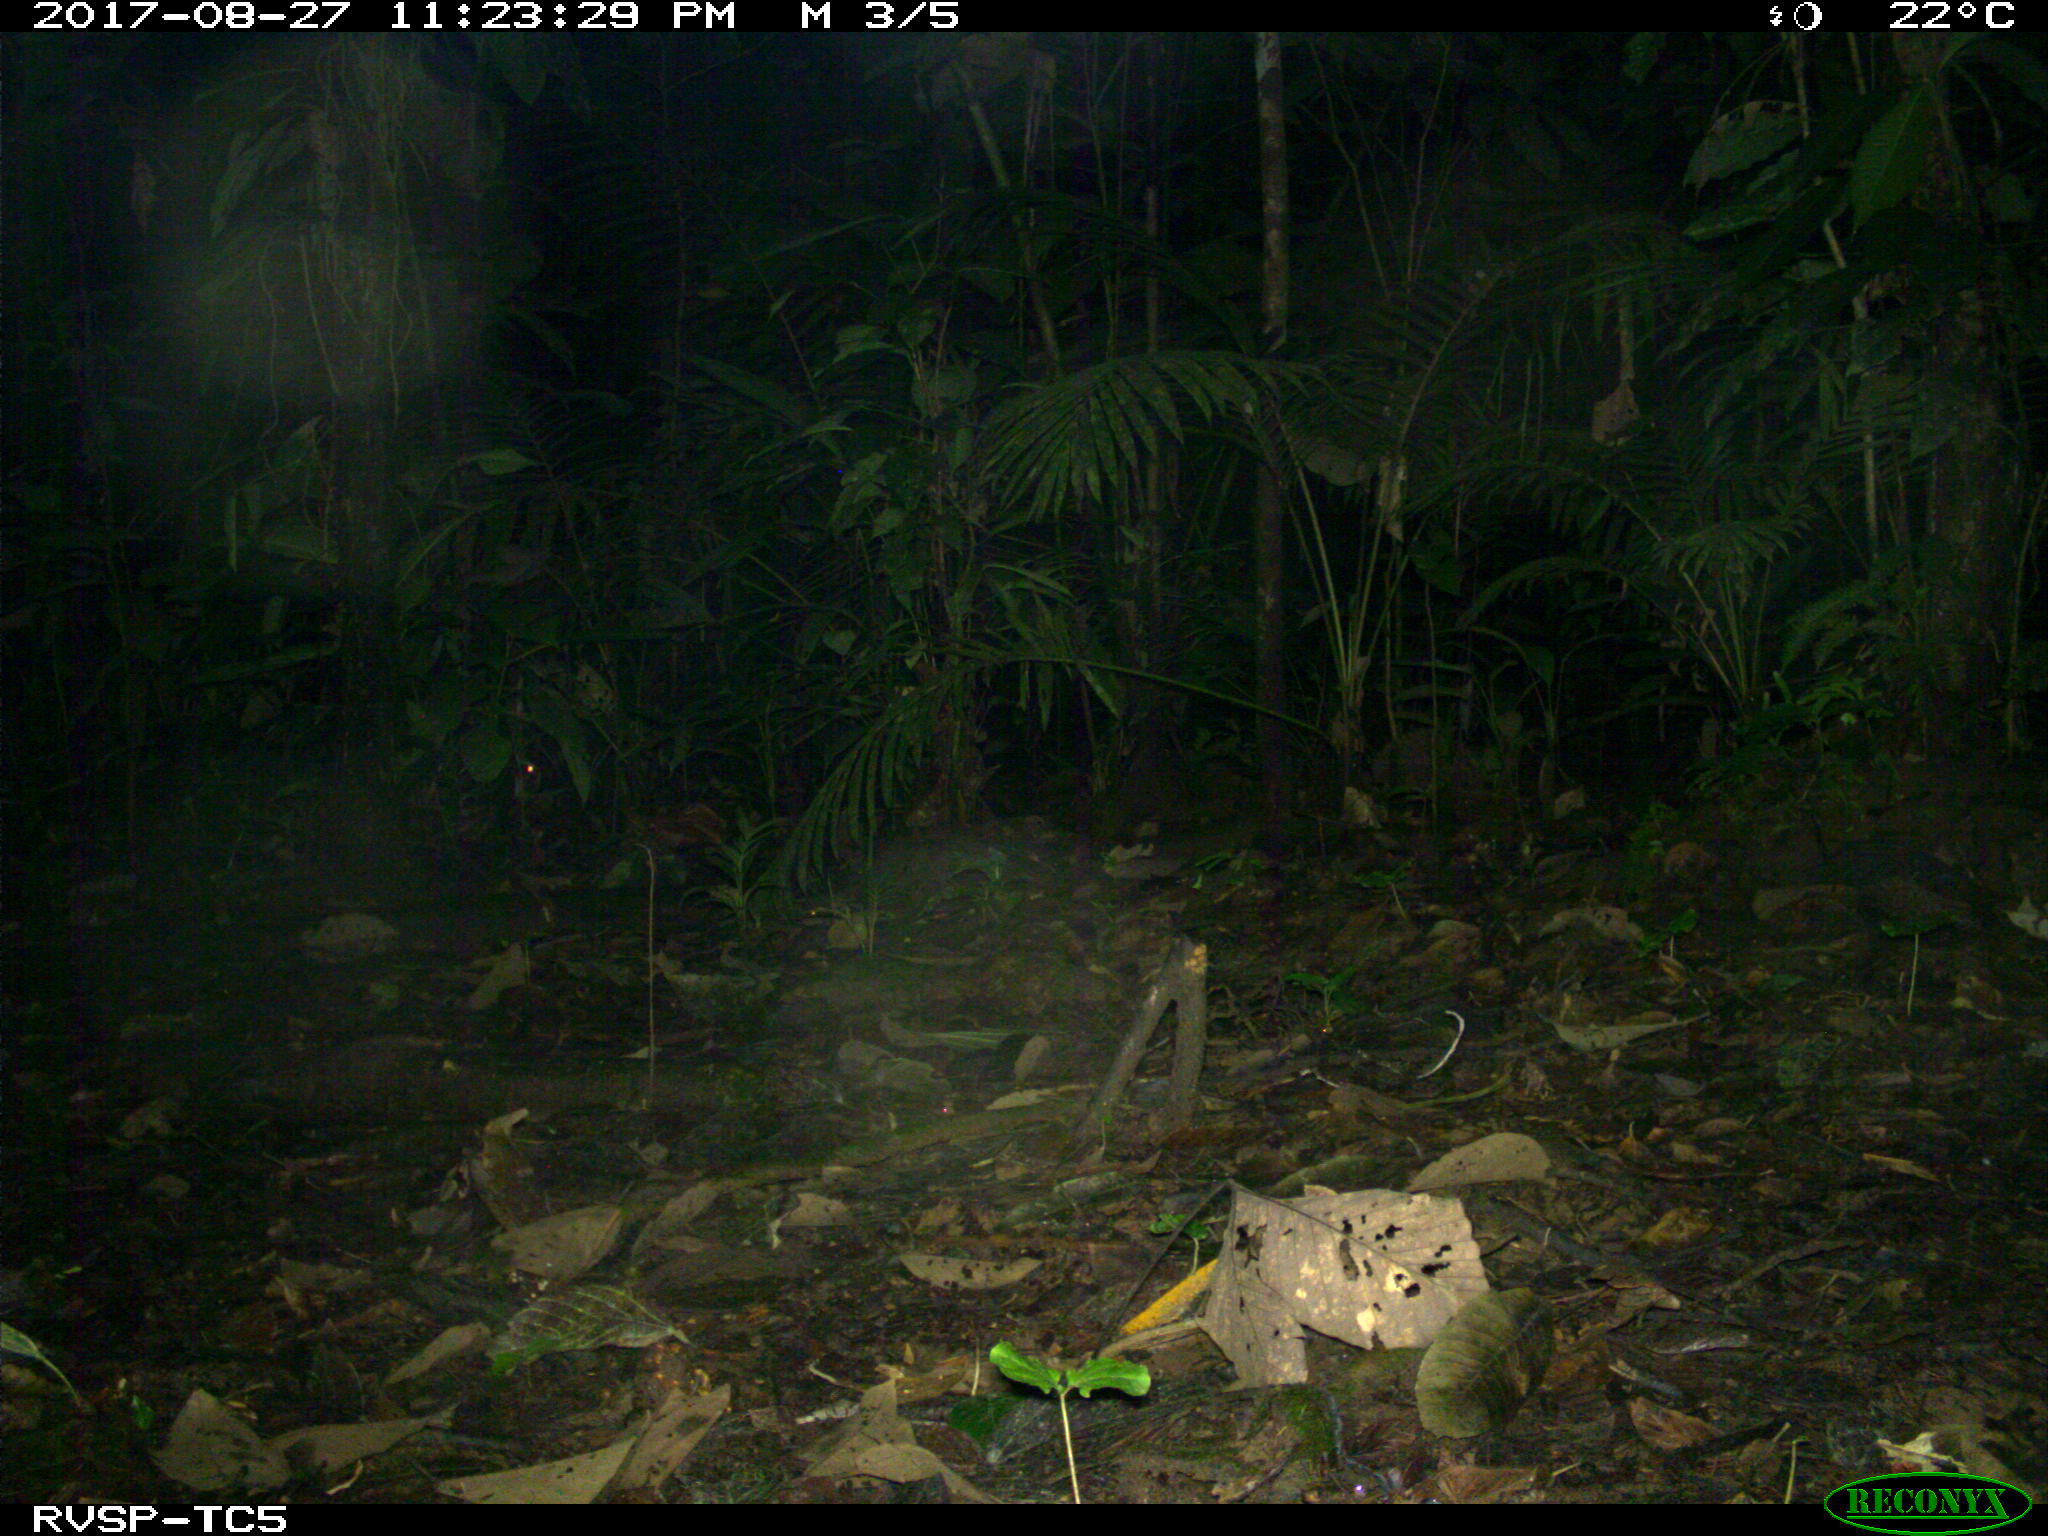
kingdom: Animalia
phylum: Chordata
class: Mammalia
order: Rodentia
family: Cuniculidae
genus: Cuniculus
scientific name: Cuniculus paca
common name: Lowland paca
